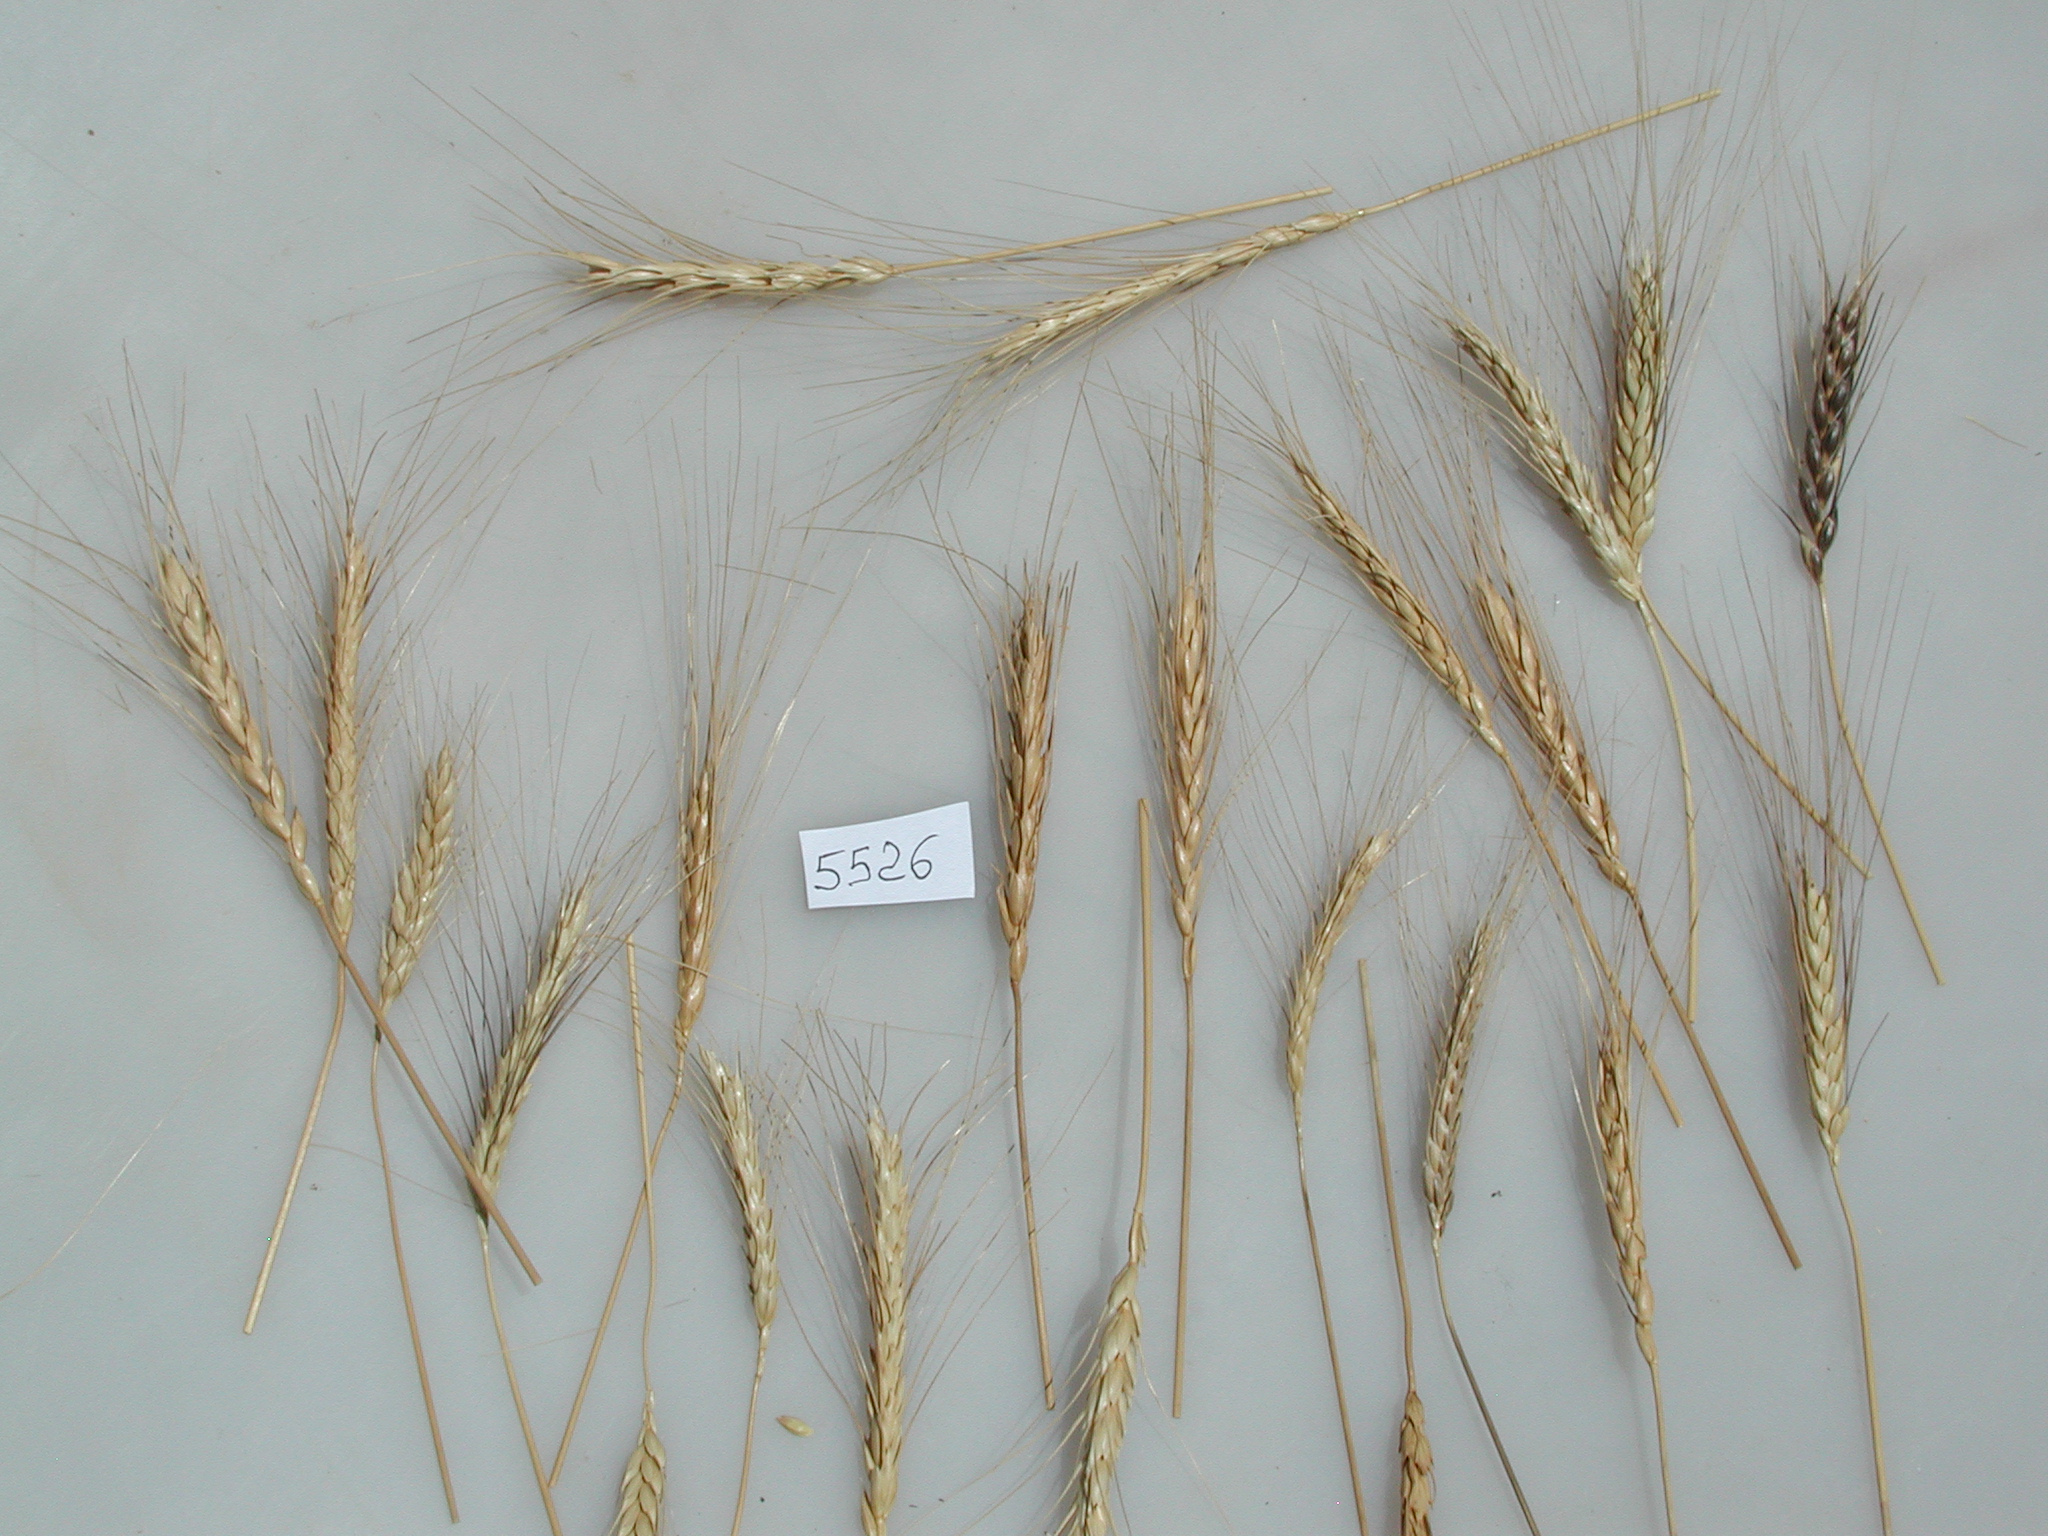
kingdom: Plantae
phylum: Tracheophyta
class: Liliopsida
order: Poales
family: Poaceae
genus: Triticum
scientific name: Triticum turgidum
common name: Emmer Wheat
